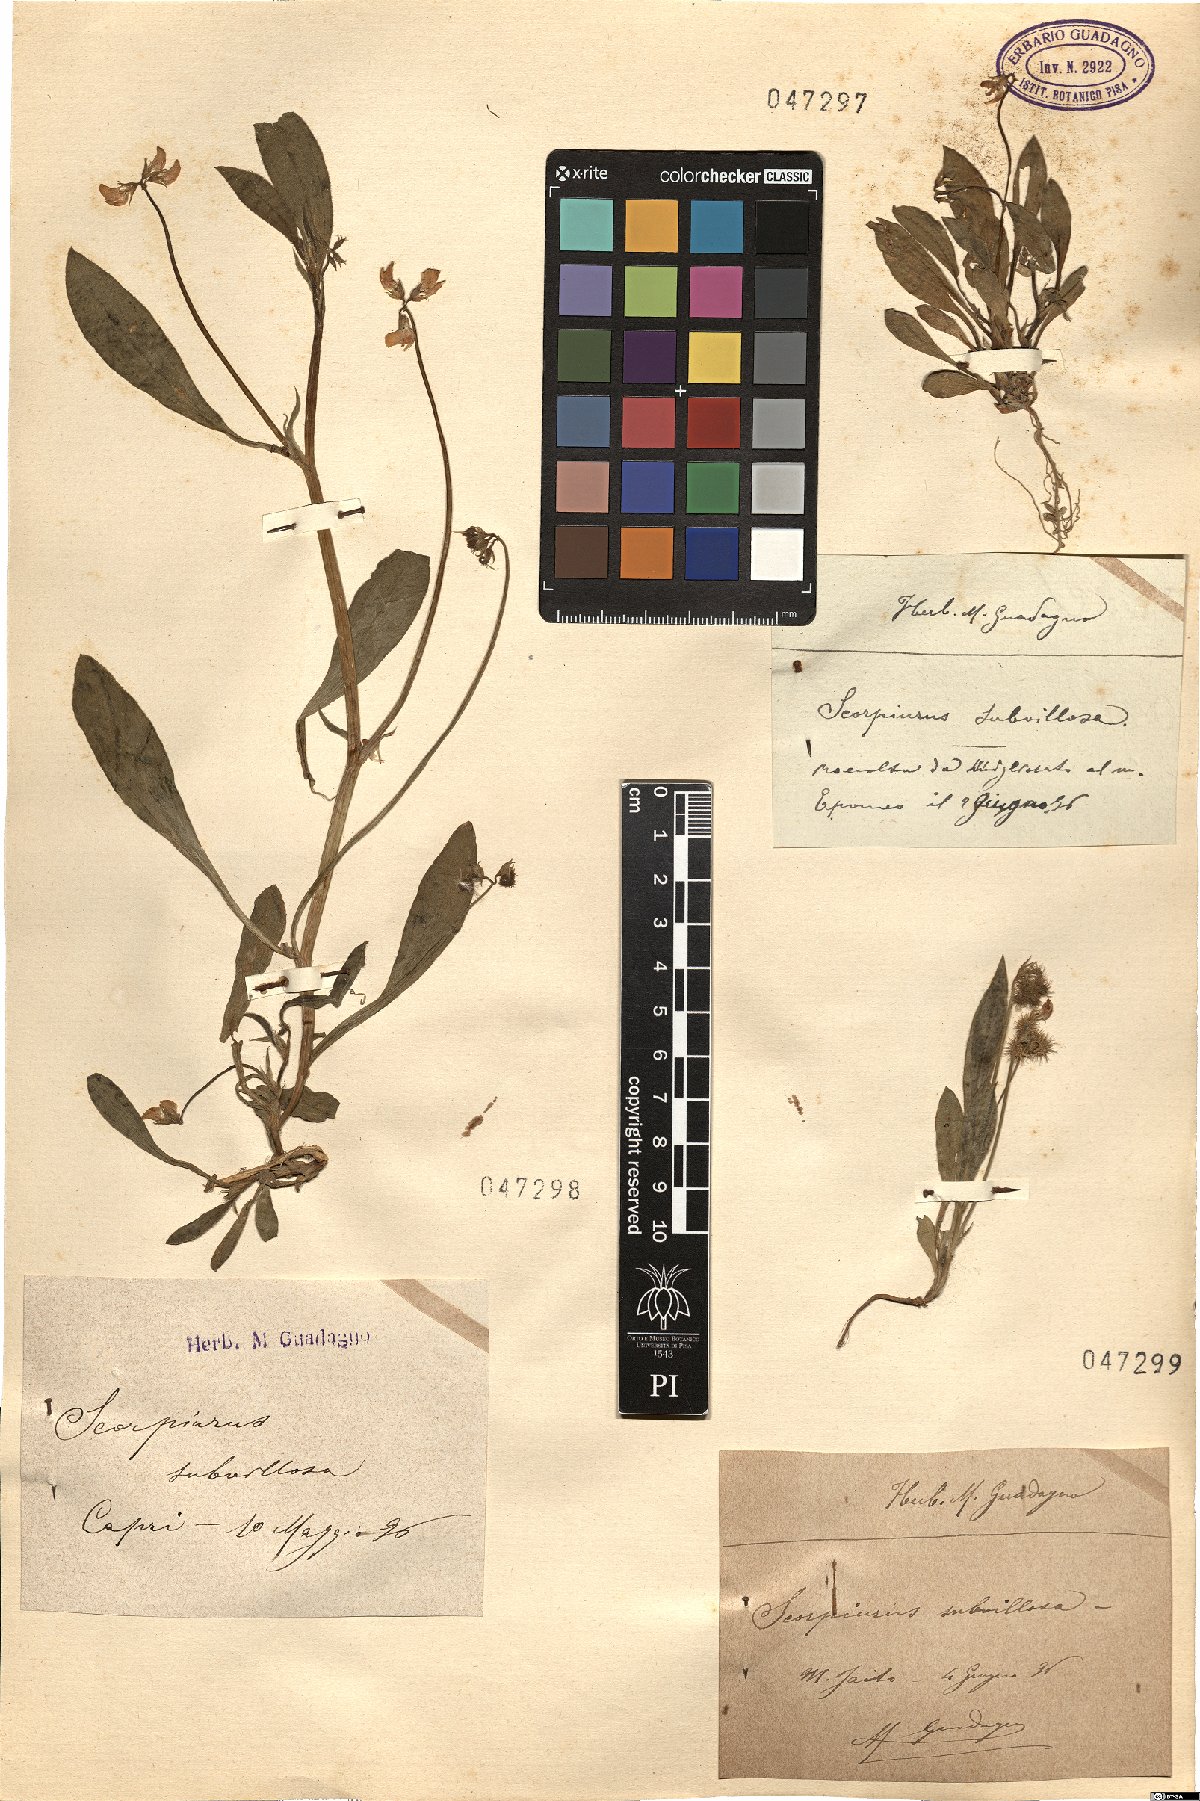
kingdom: Plantae
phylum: Tracheophyta
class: Magnoliopsida
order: Fabales
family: Fabaceae
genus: Scorpiurus
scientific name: Scorpiurus muricatus
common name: Caterpillar-plant
